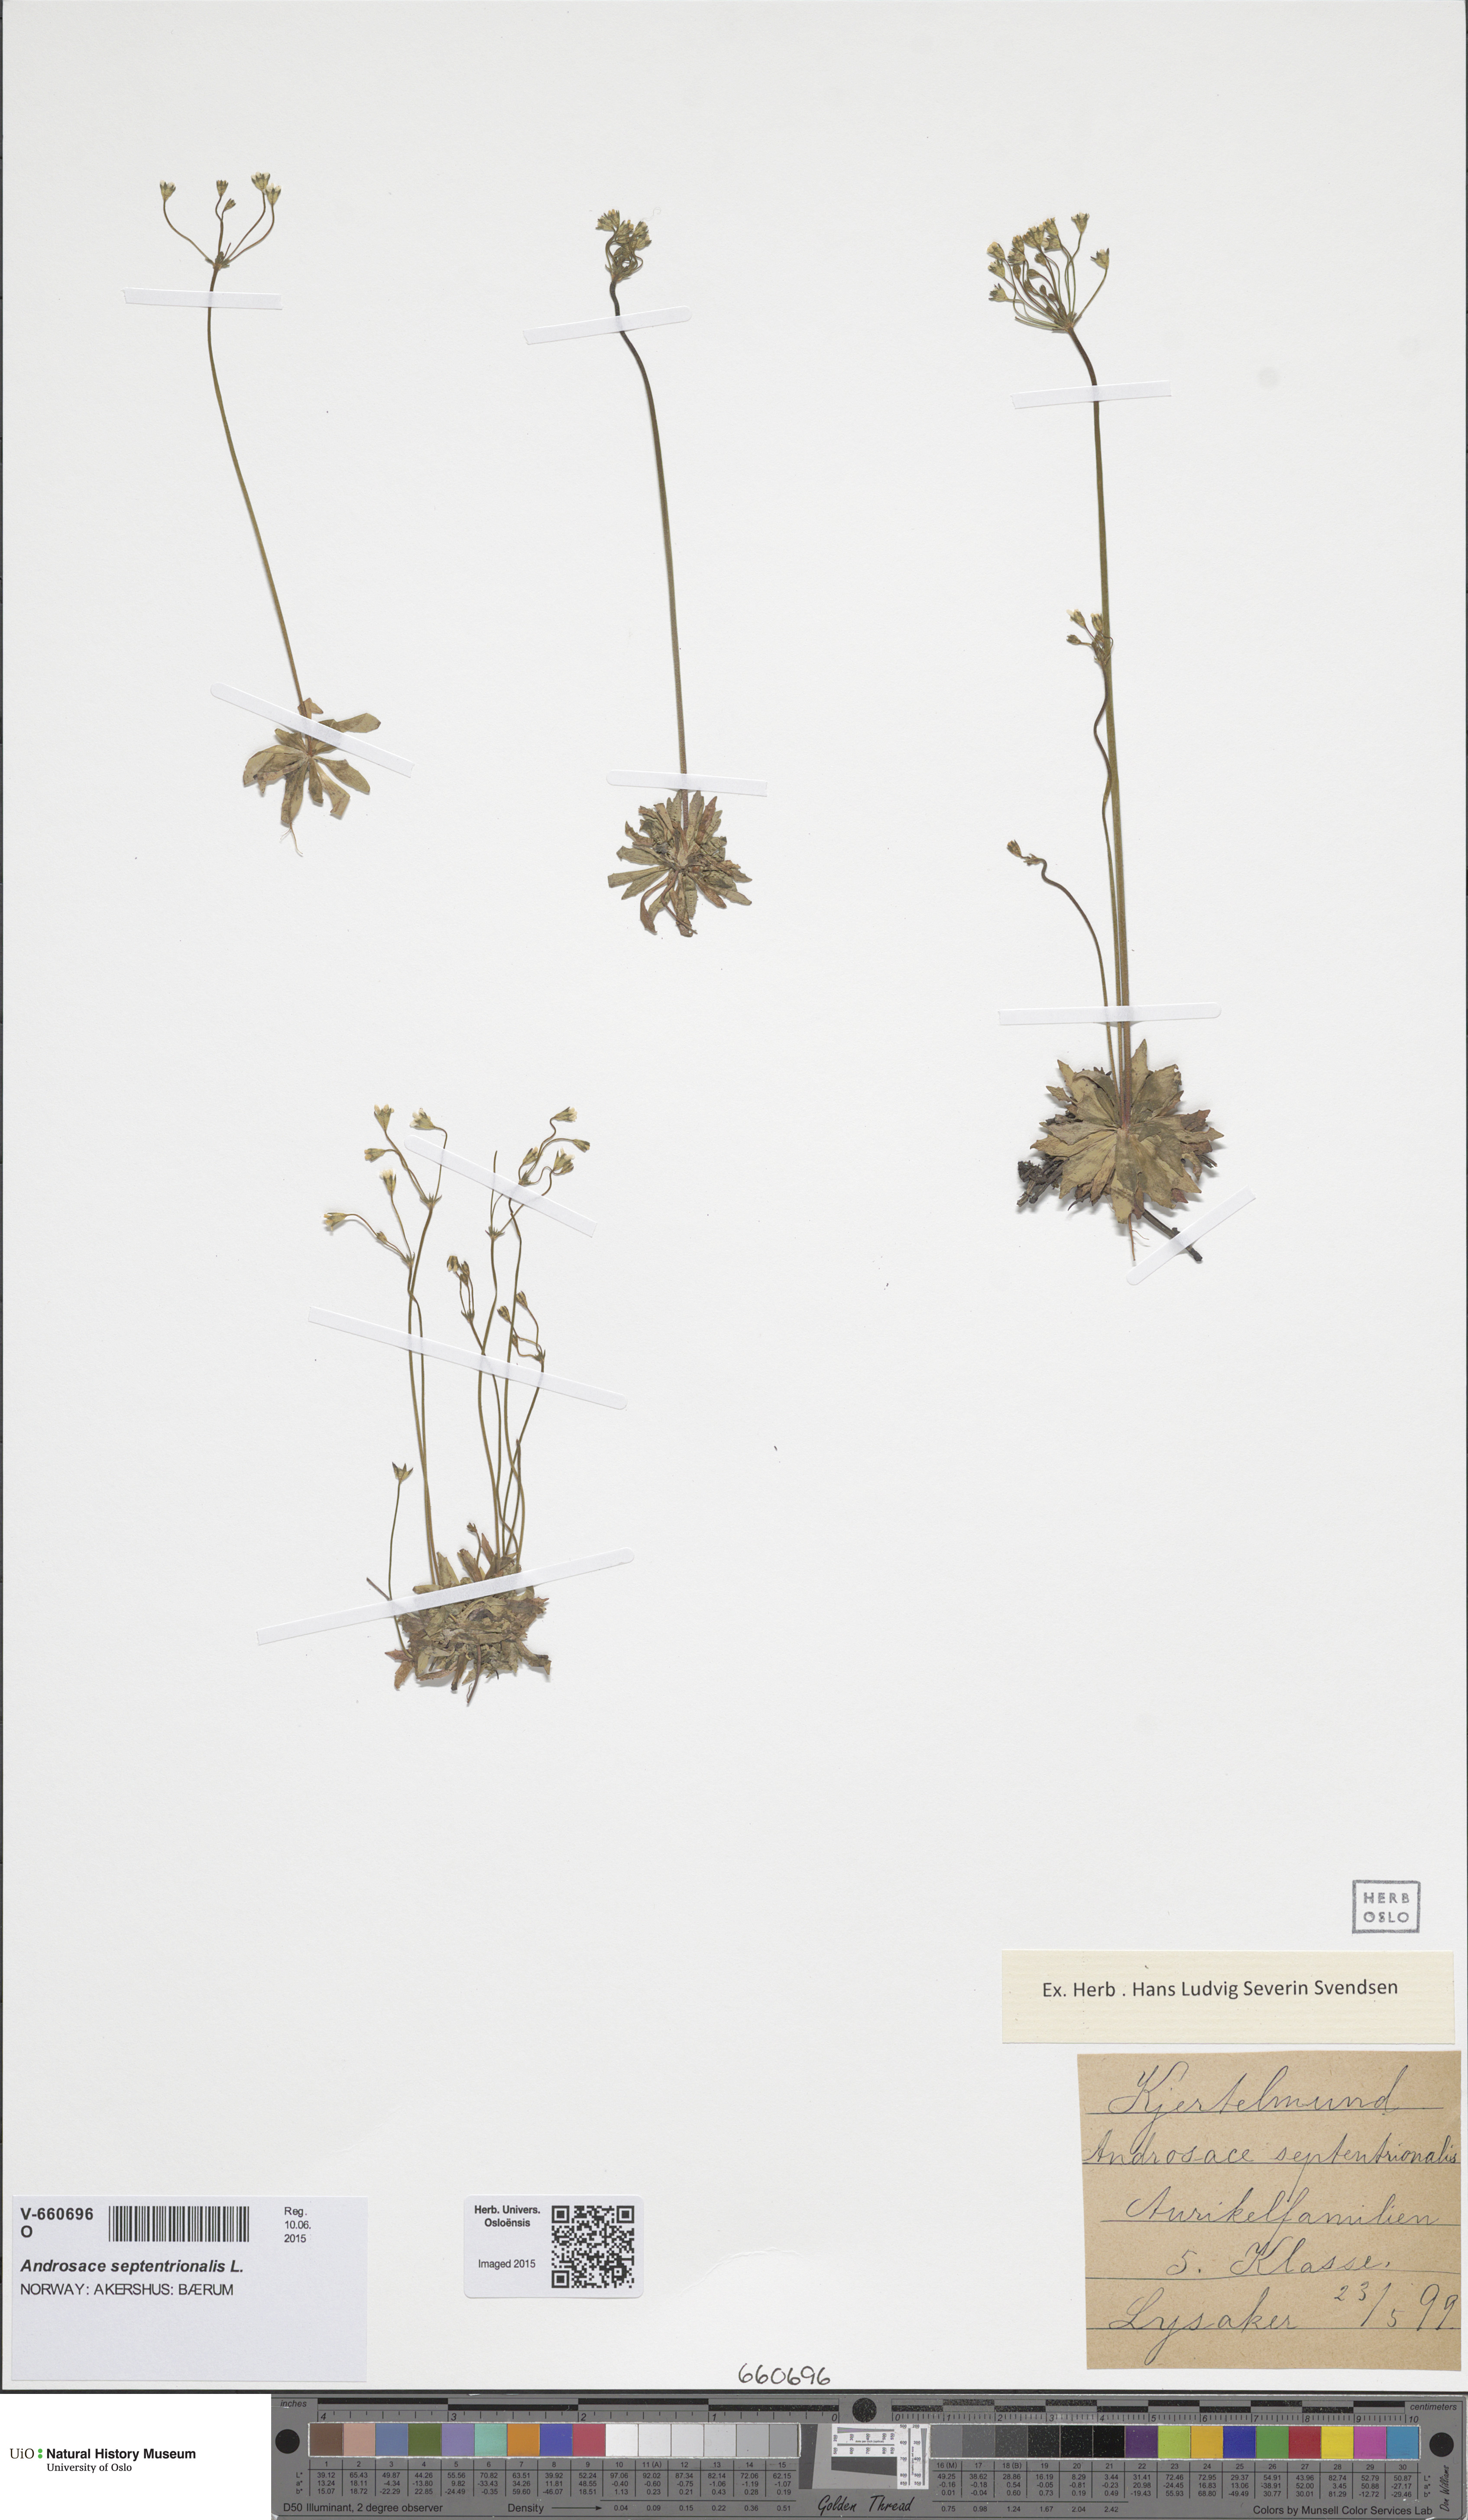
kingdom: Plantae
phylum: Tracheophyta
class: Magnoliopsida
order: Ericales
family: Primulaceae
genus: Androsace
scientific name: Androsace septentrionalis
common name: Hairy northern fairy-candelabra
